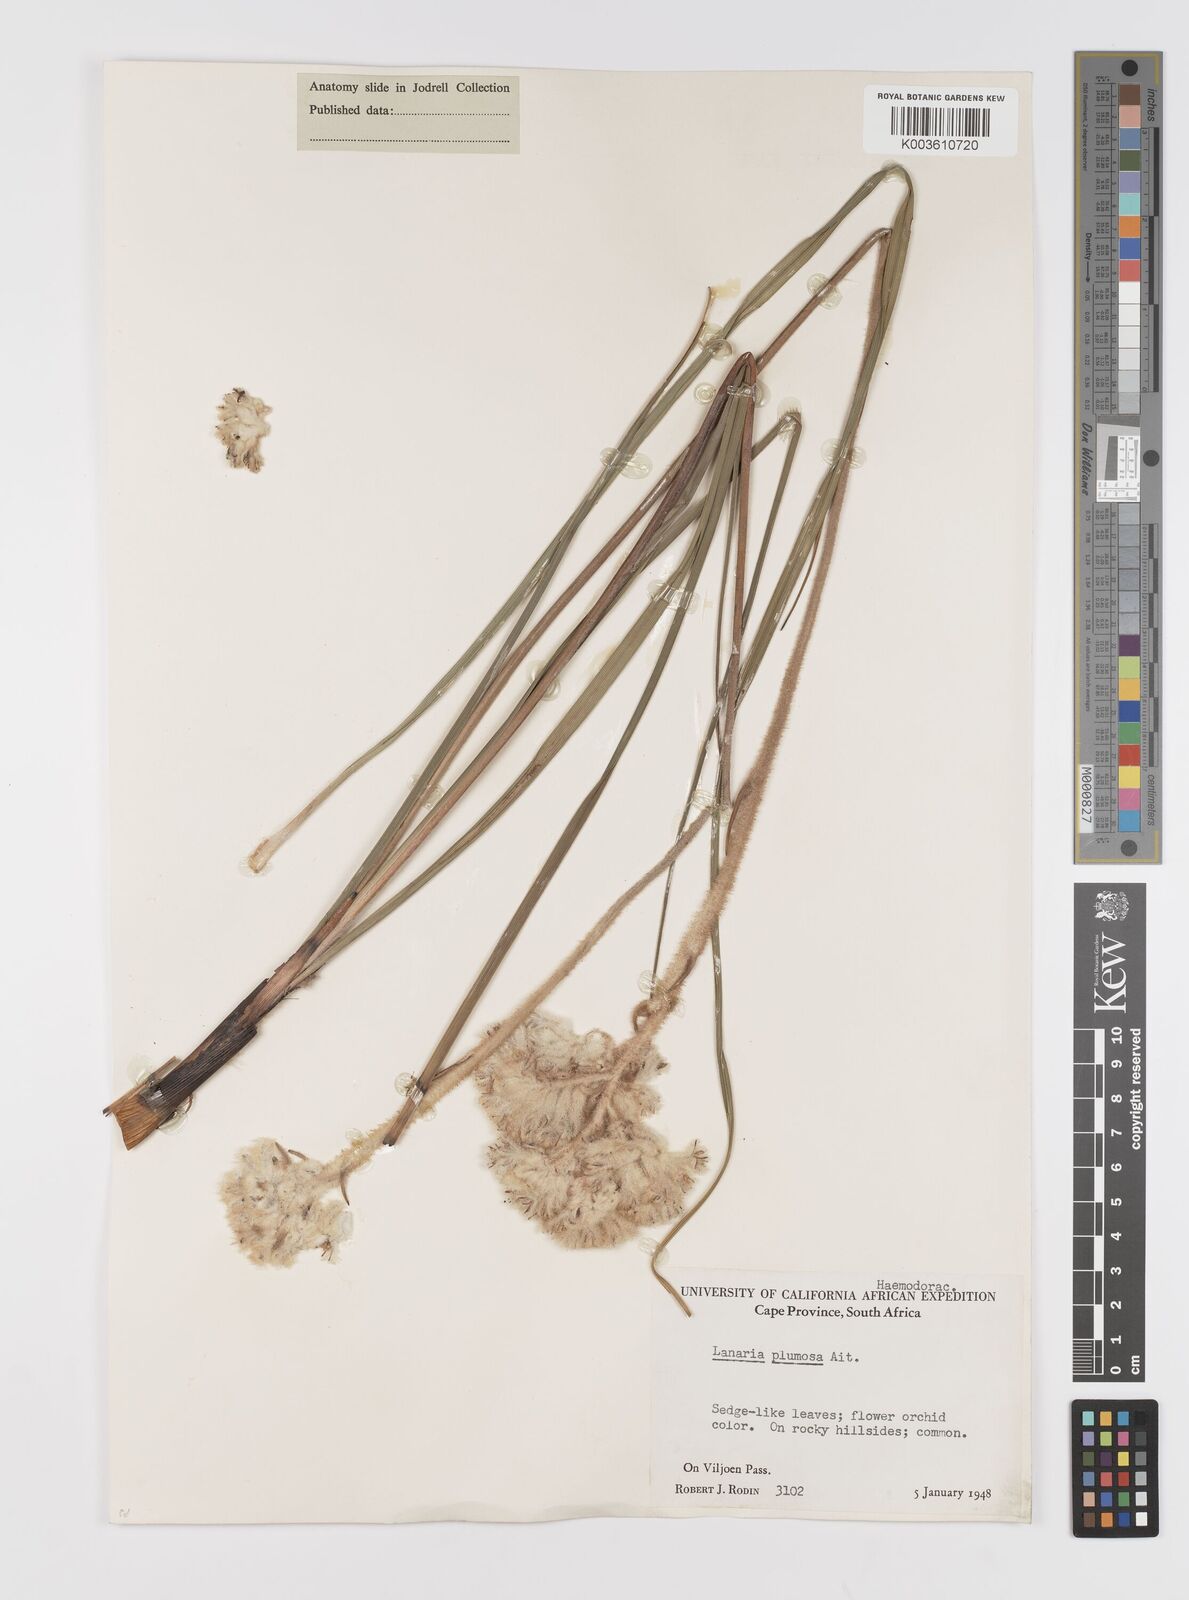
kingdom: Plantae
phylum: Tracheophyta
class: Liliopsida
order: Asparagales
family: Lanariaceae
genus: Lanaria
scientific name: Lanaria lanata
